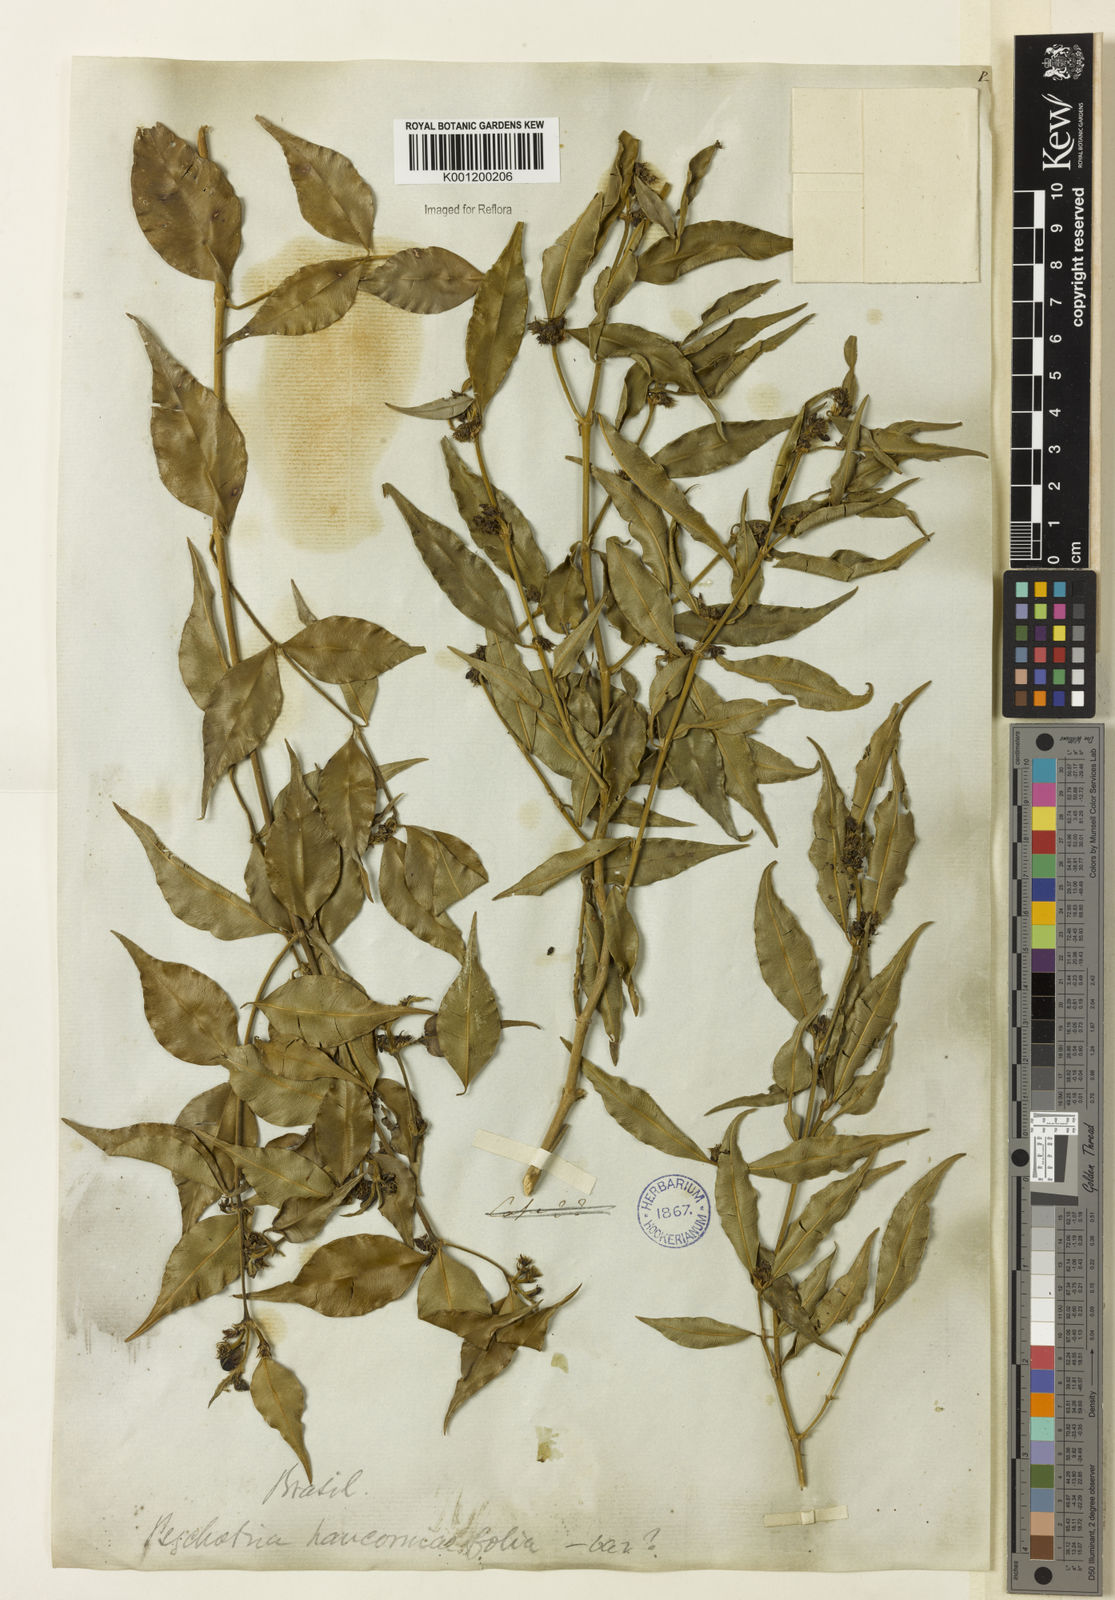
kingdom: Plantae
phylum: Tracheophyta
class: Magnoliopsida
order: Gentianales
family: Rubiaceae
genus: Rudgea
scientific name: Rudgea sessilis
